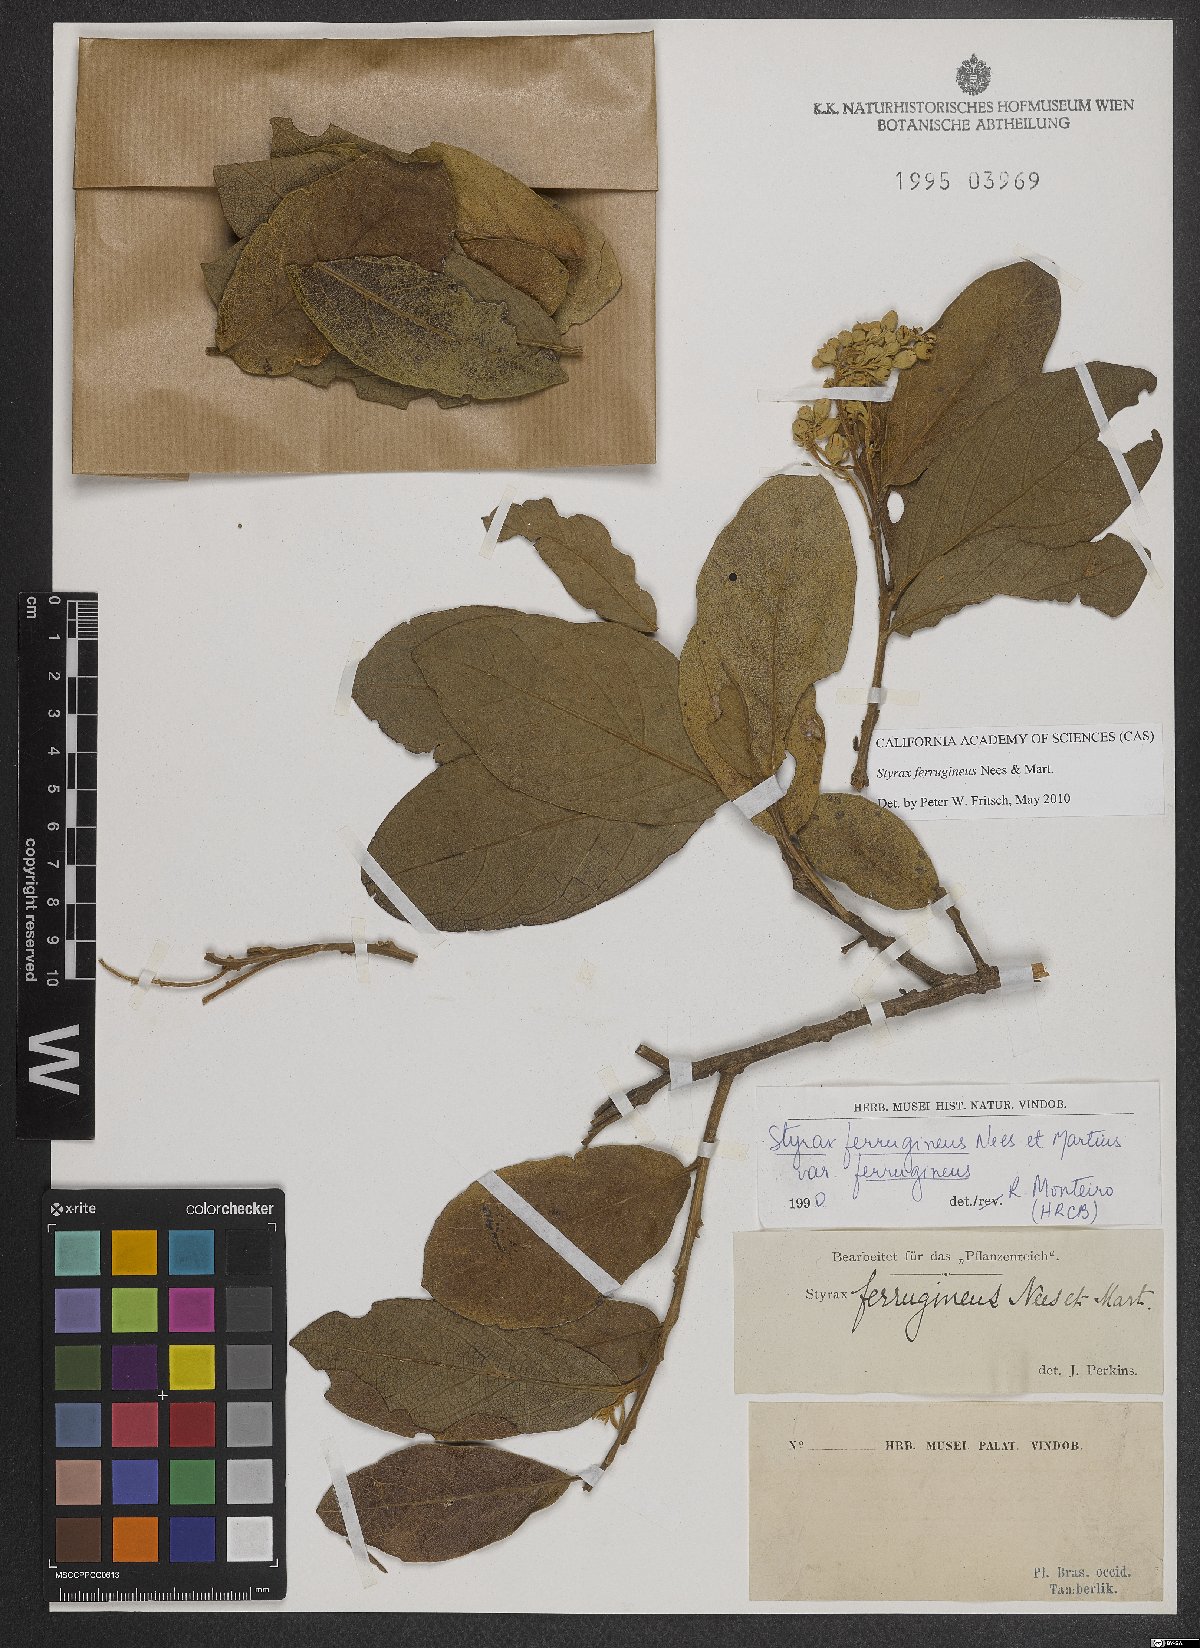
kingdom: Plantae
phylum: Tracheophyta
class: Magnoliopsida
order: Ericales
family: Styracaceae
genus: Styrax
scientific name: Styrax ferrugineus
